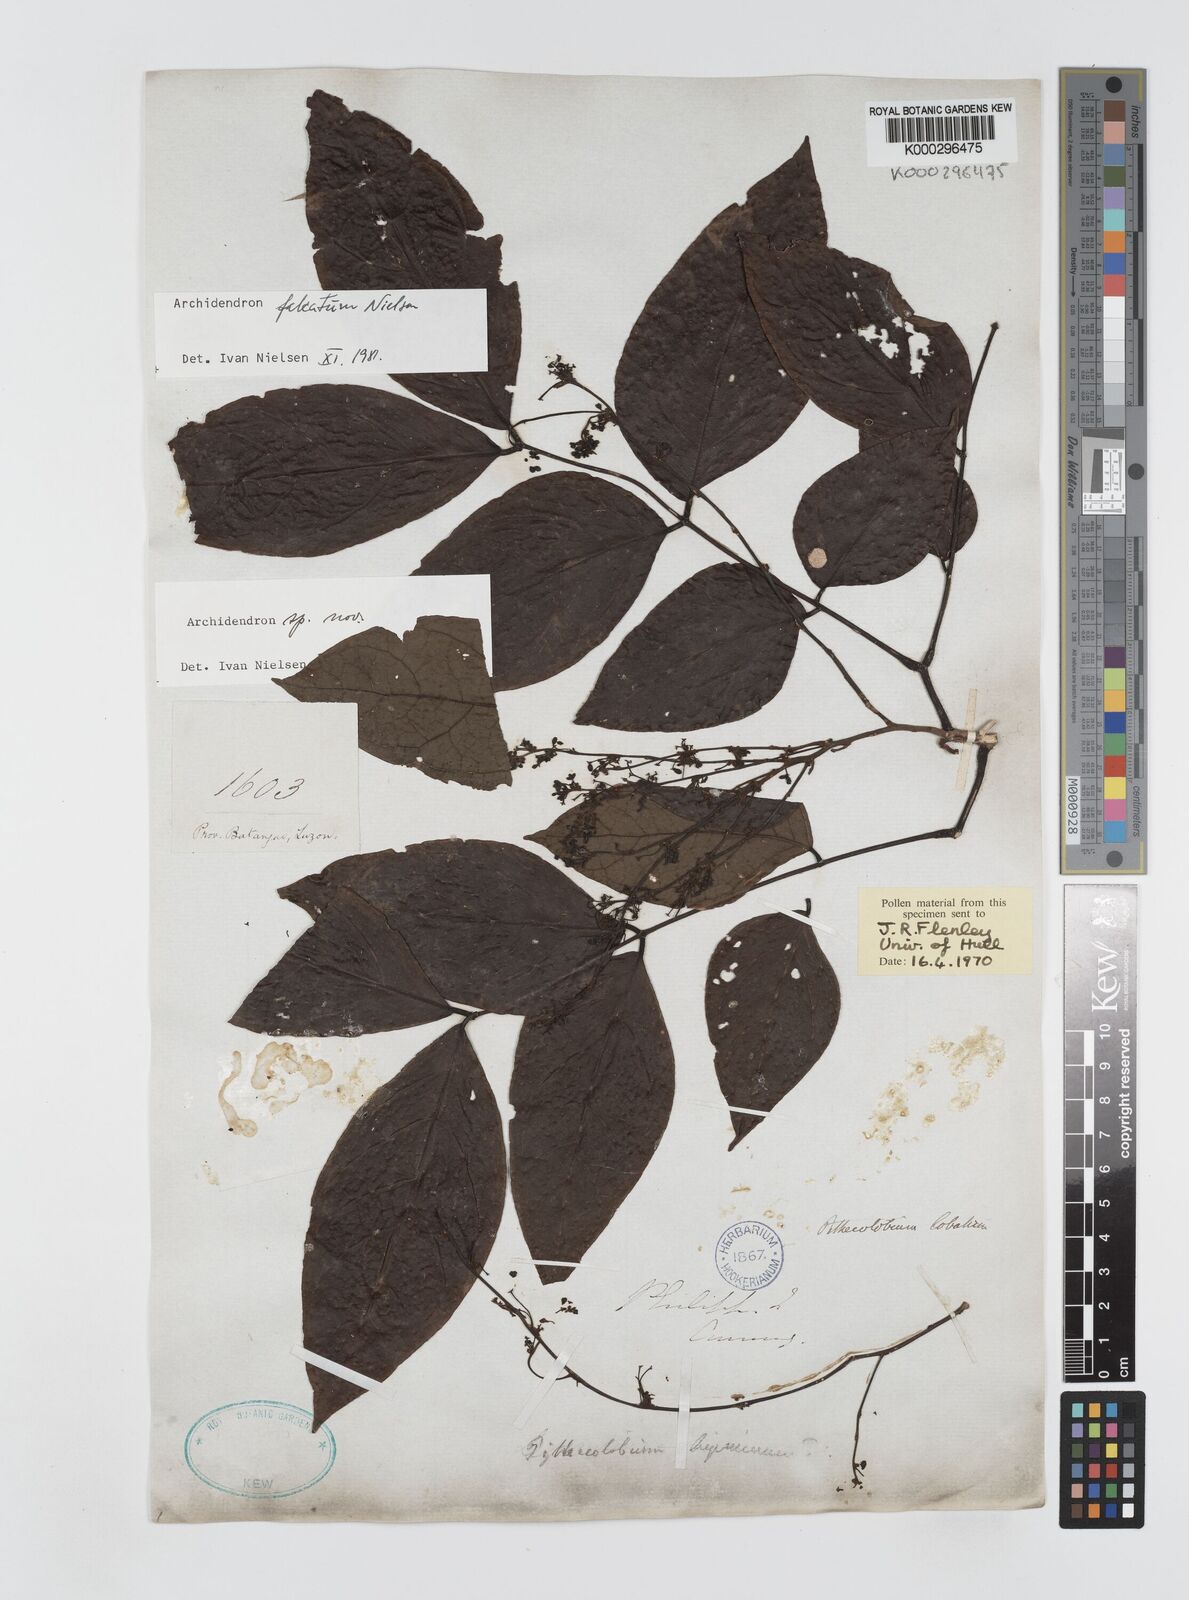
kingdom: Plantae
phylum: Tracheophyta
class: Magnoliopsida
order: Fabales
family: Fabaceae
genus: Archidendron
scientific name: Archidendron falcatum
